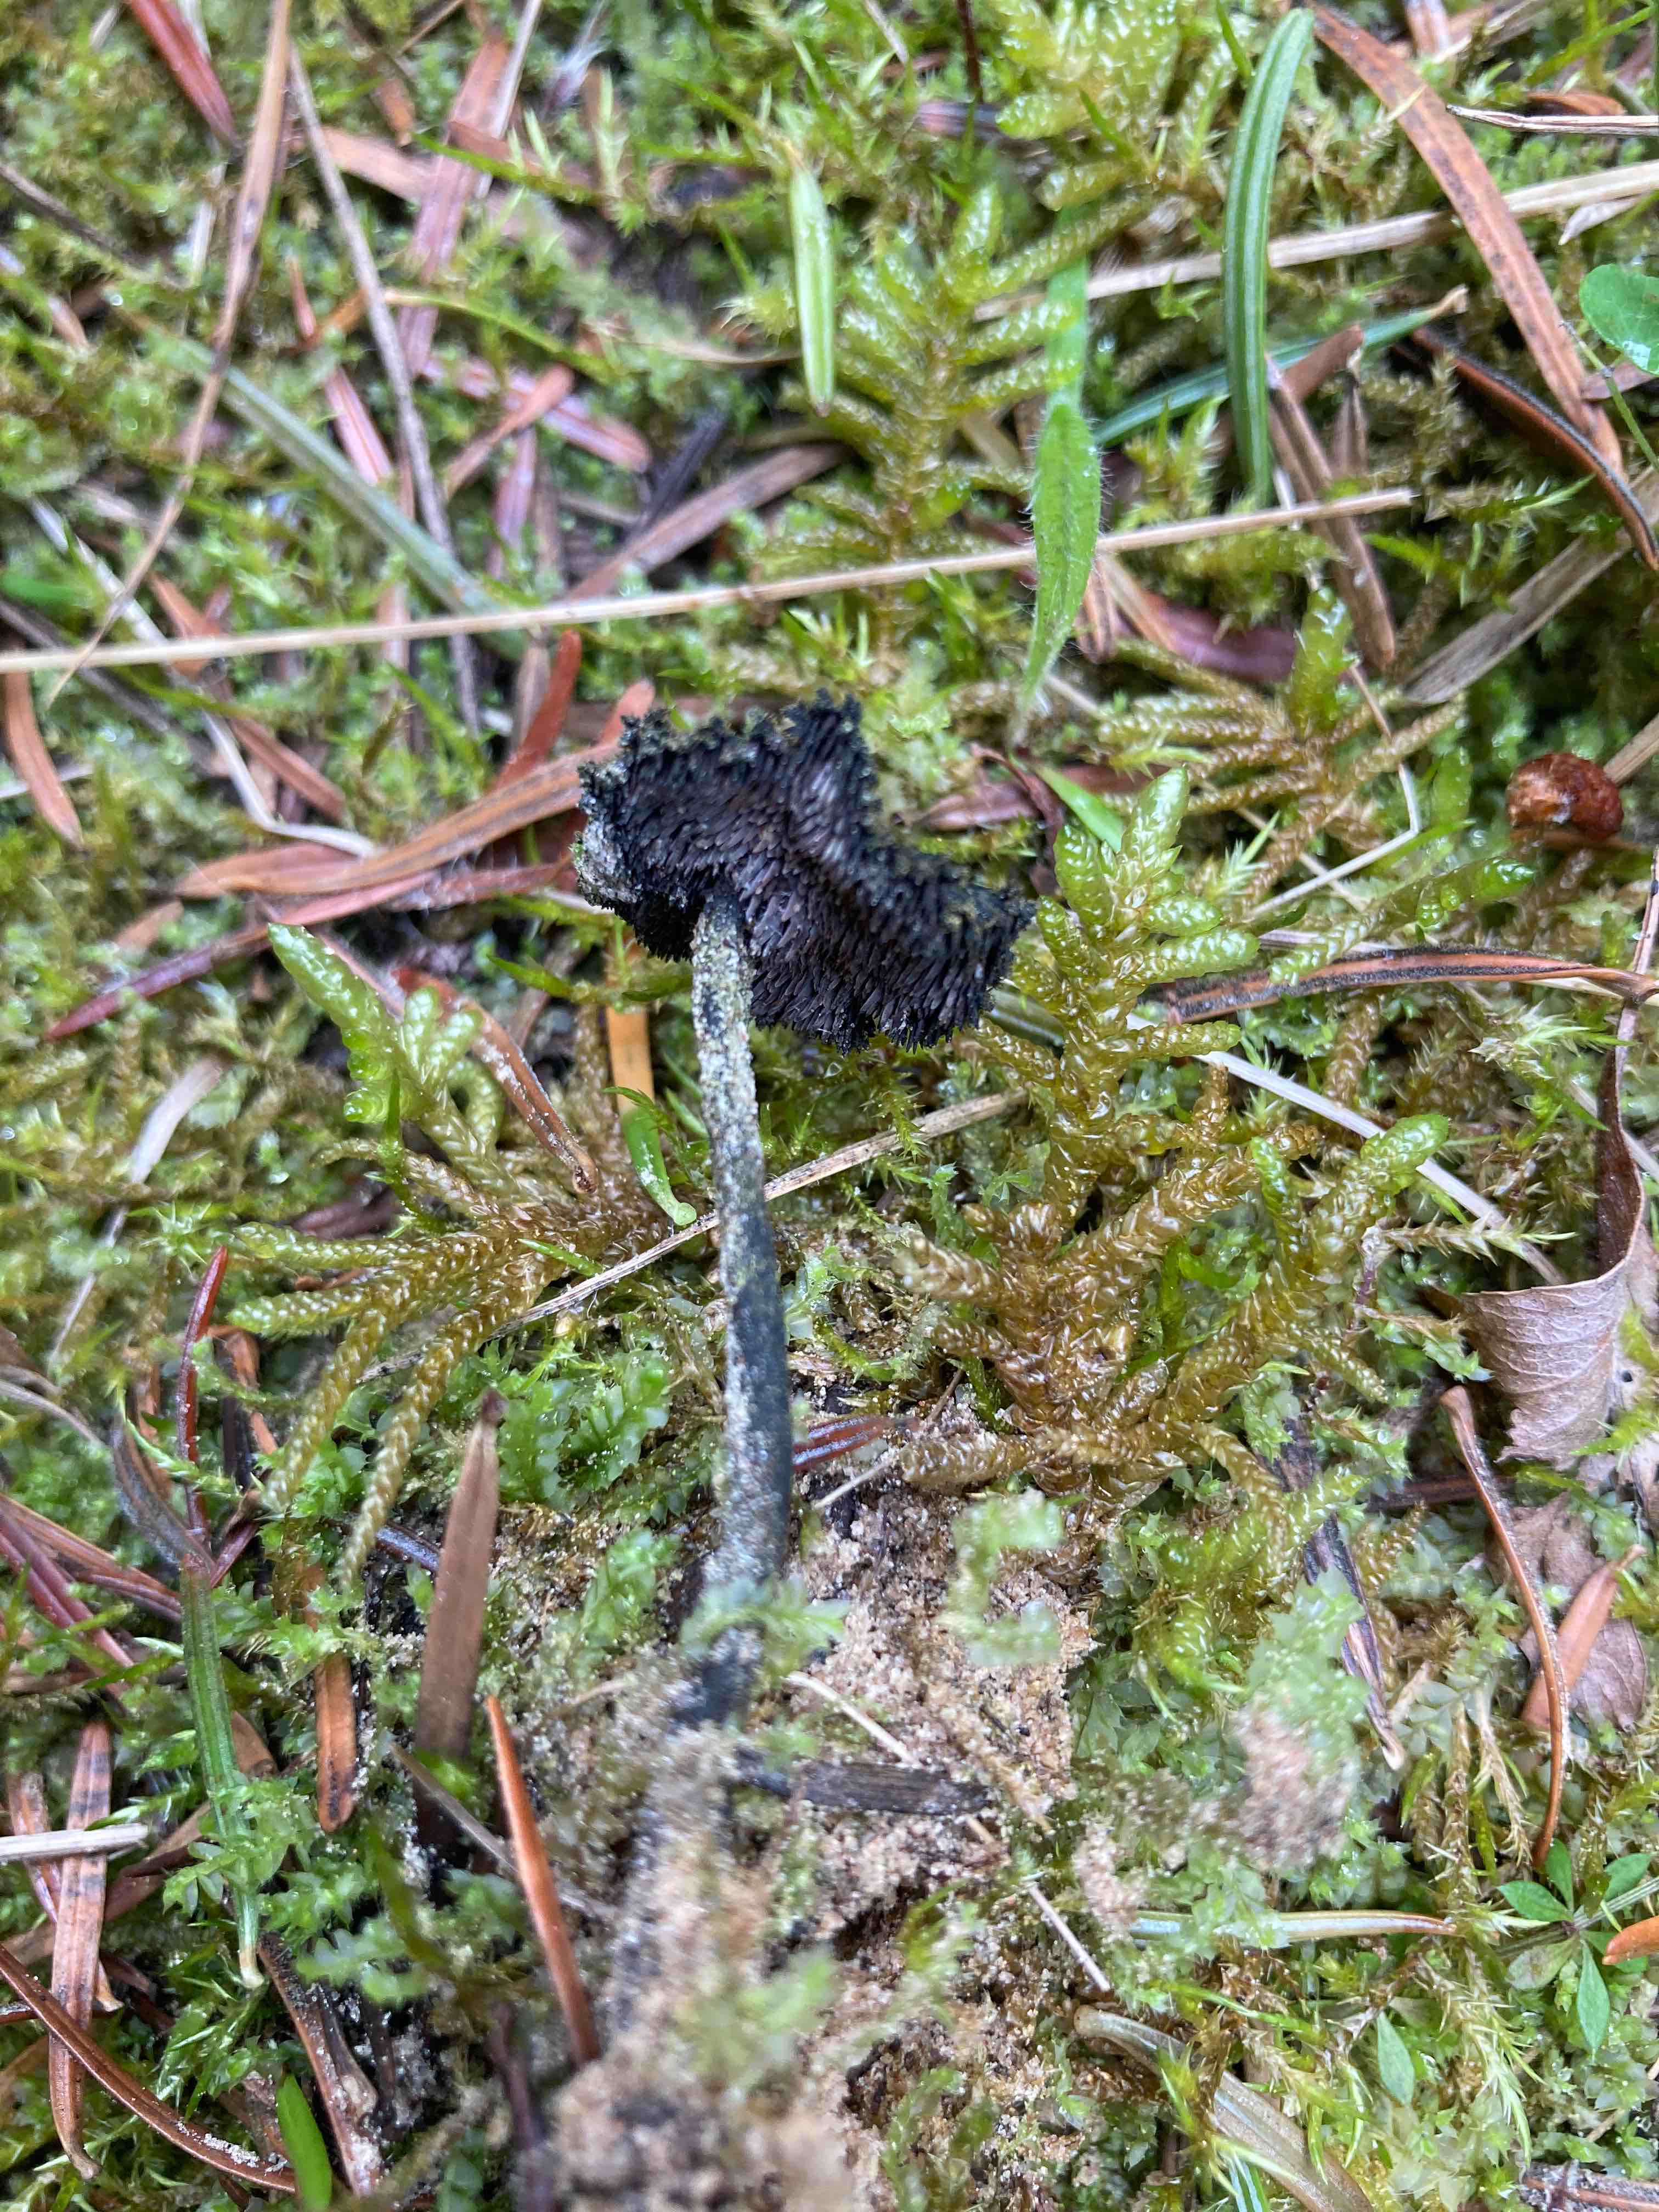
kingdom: Fungi
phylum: Basidiomycota
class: Agaricomycetes
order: Russulales
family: Auriscalpiaceae
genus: Auriscalpium
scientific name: Auriscalpium vulgare
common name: koglepigsvamp
